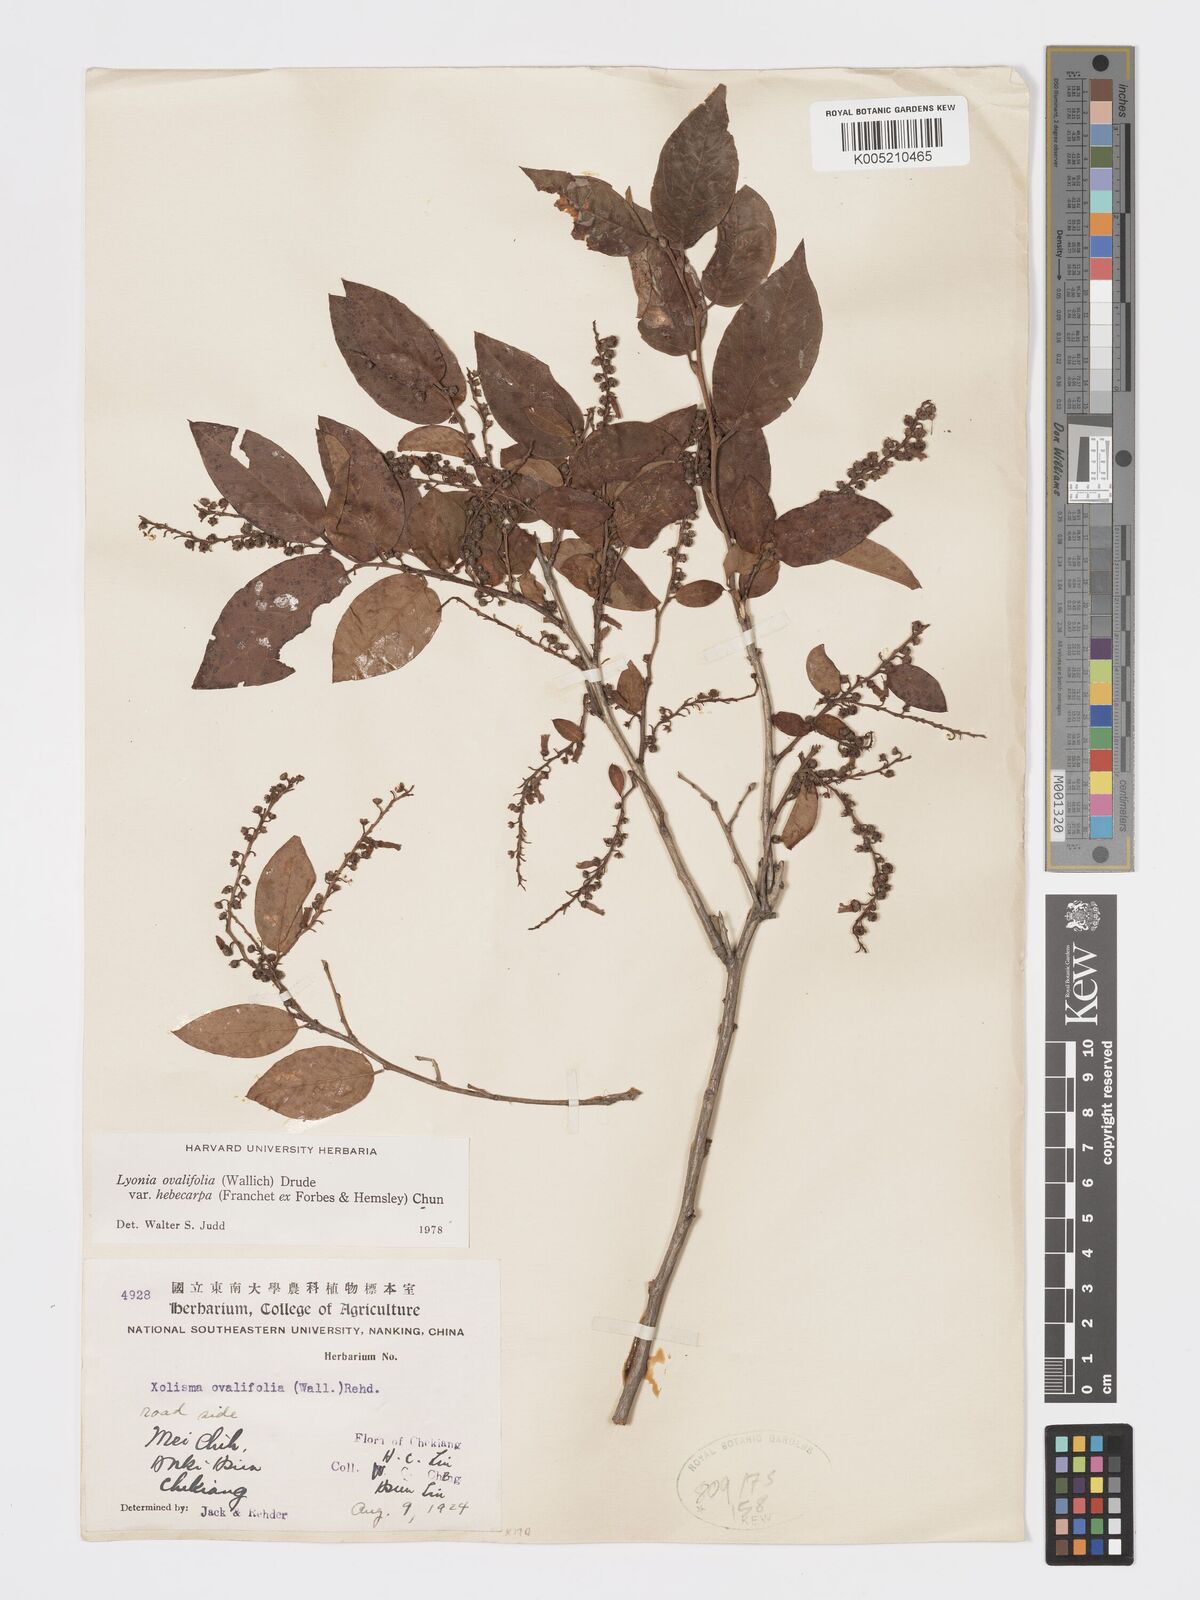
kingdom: Plantae
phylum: Tracheophyta
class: Magnoliopsida
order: Ericales
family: Ericaceae
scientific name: Ericaceae
